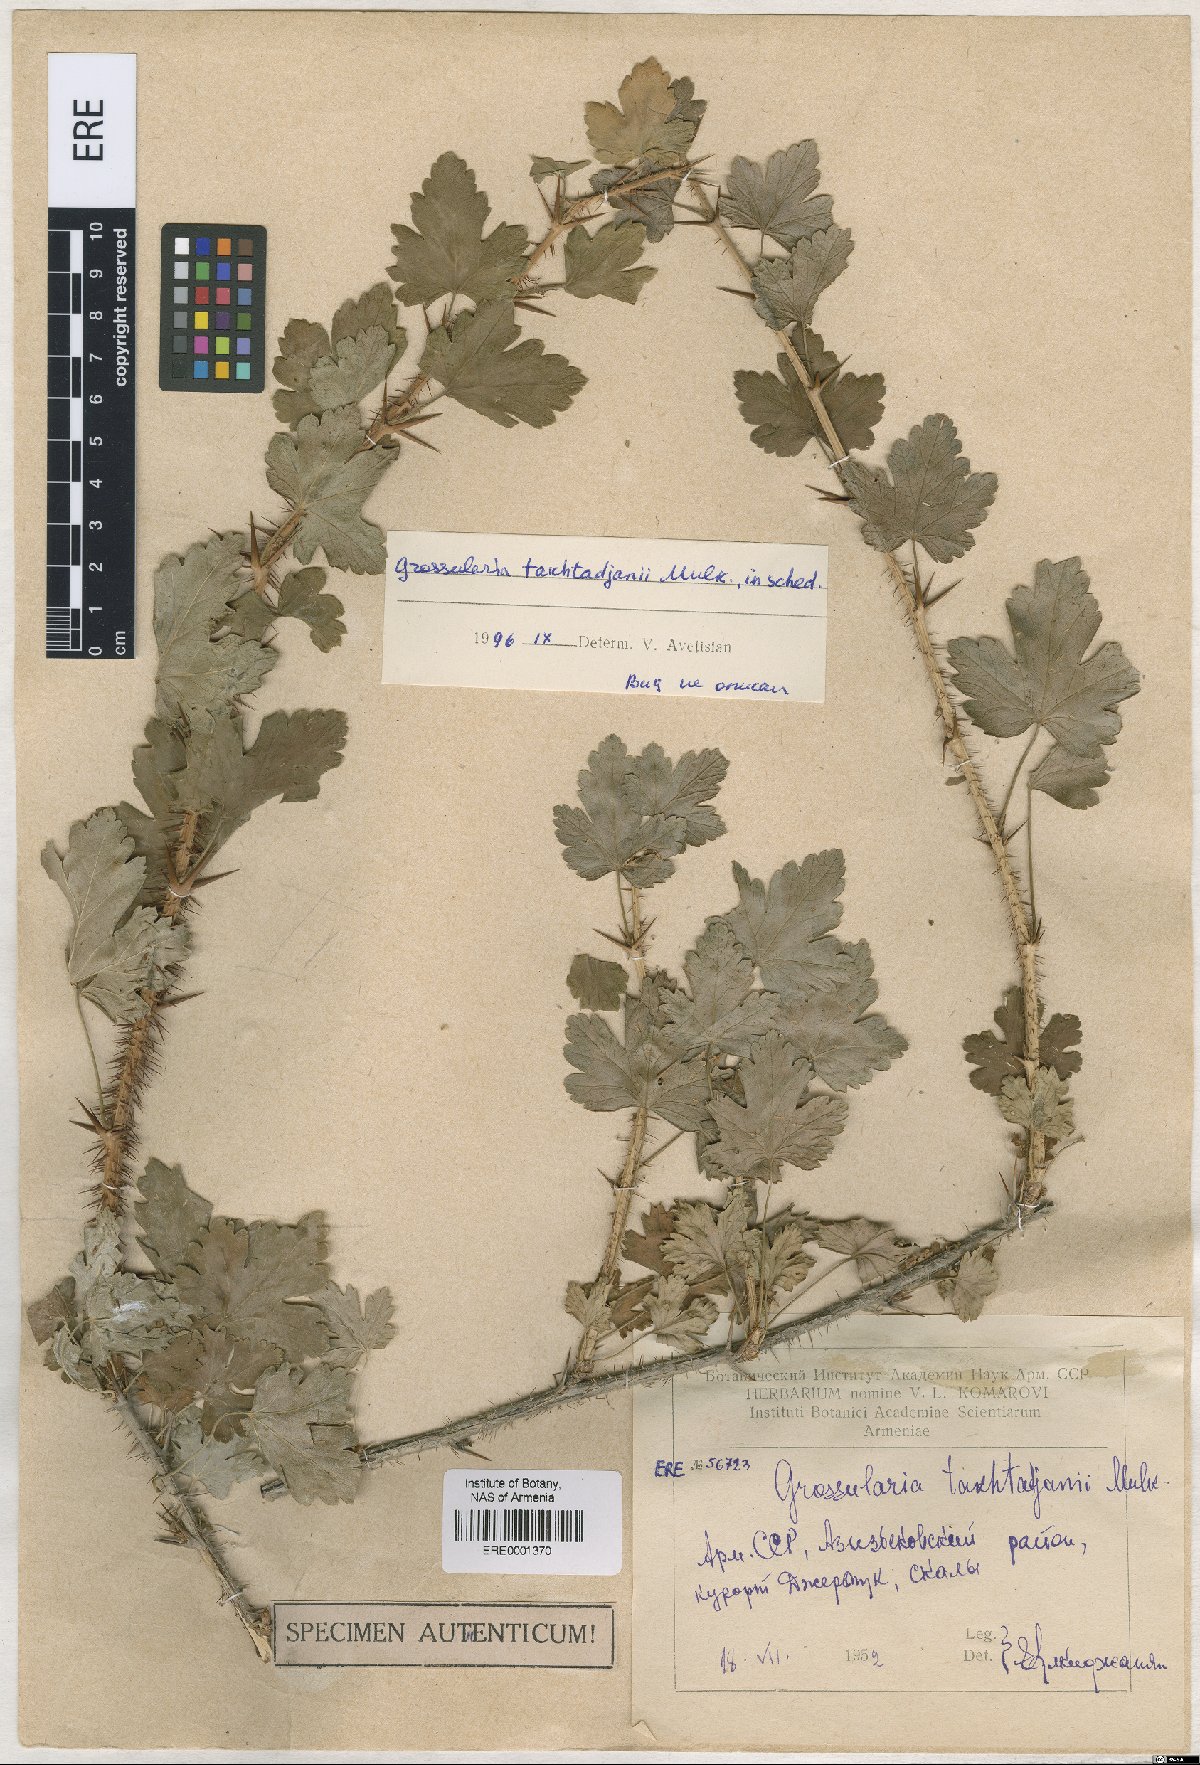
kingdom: Plantae
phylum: Tracheophyta
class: Magnoliopsida
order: Saxifragales
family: Grossulariaceae
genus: Grossularia
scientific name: Grossularia
